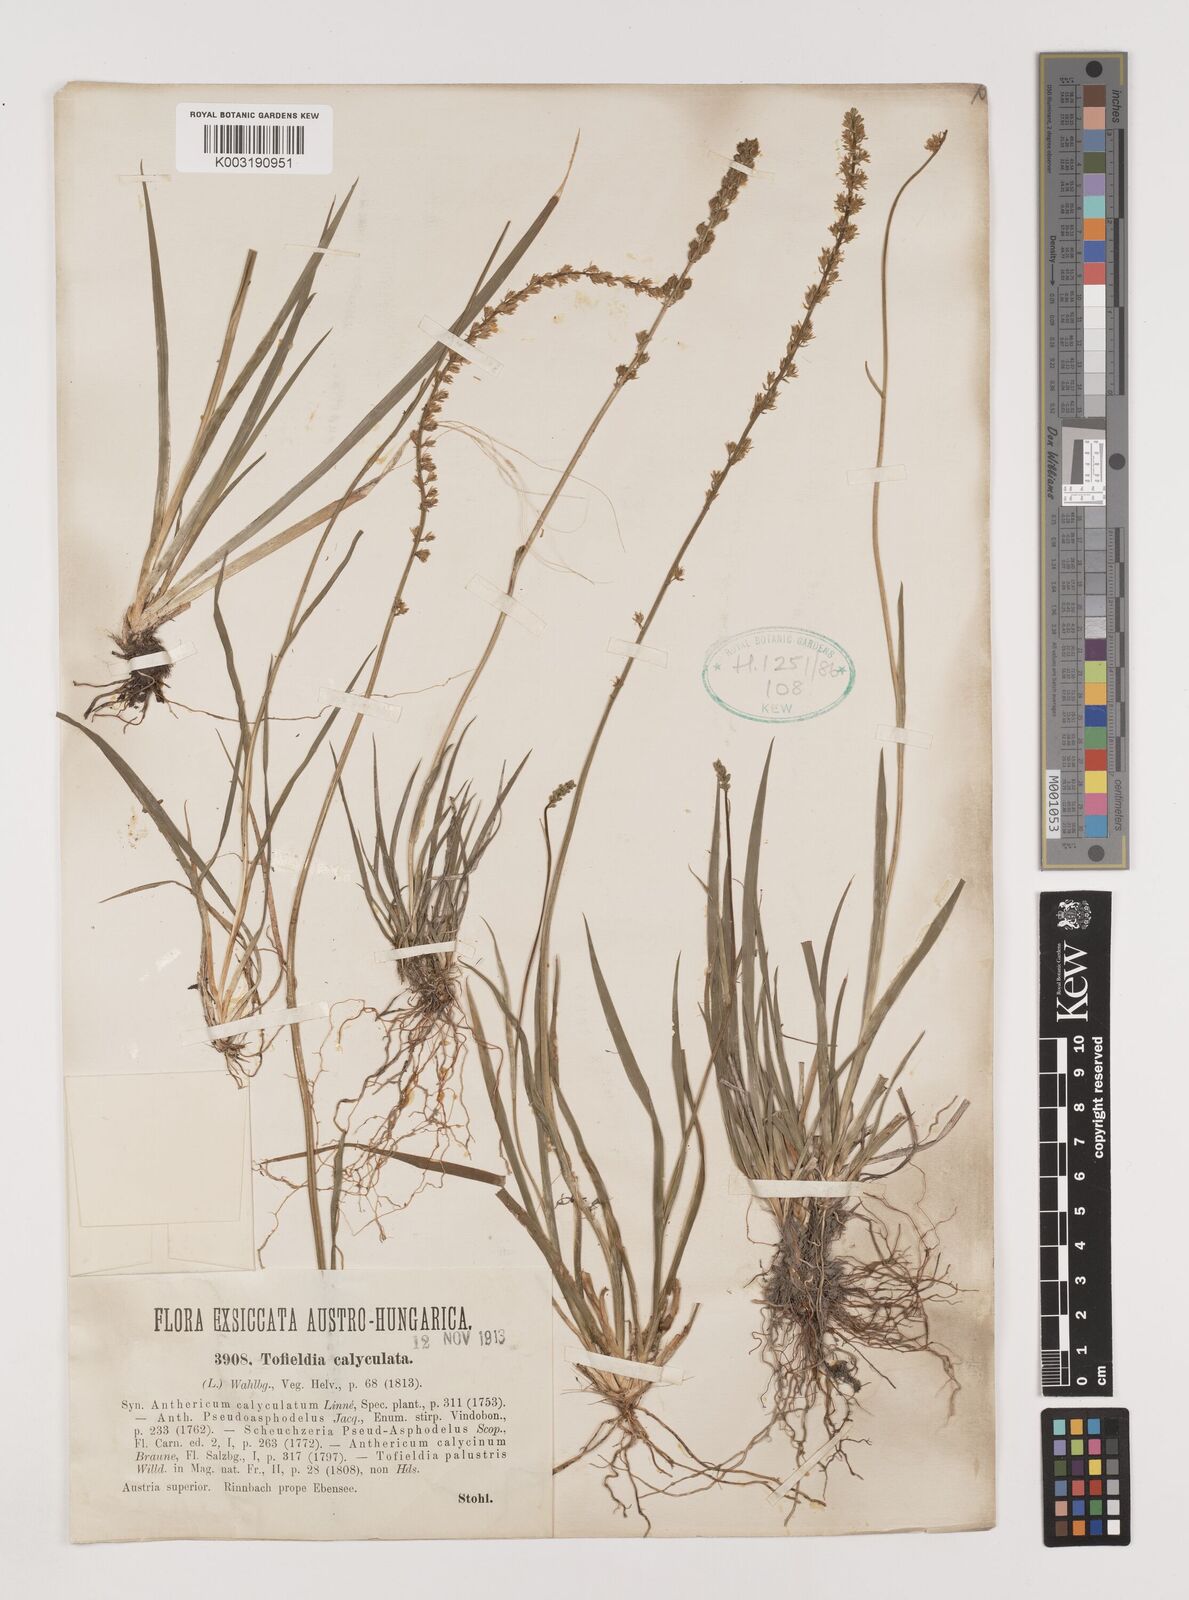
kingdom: Plantae
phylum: Tracheophyta
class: Liliopsida
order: Alismatales
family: Tofieldiaceae
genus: Tofieldia
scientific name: Tofieldia calyculata
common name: German-asphodel
